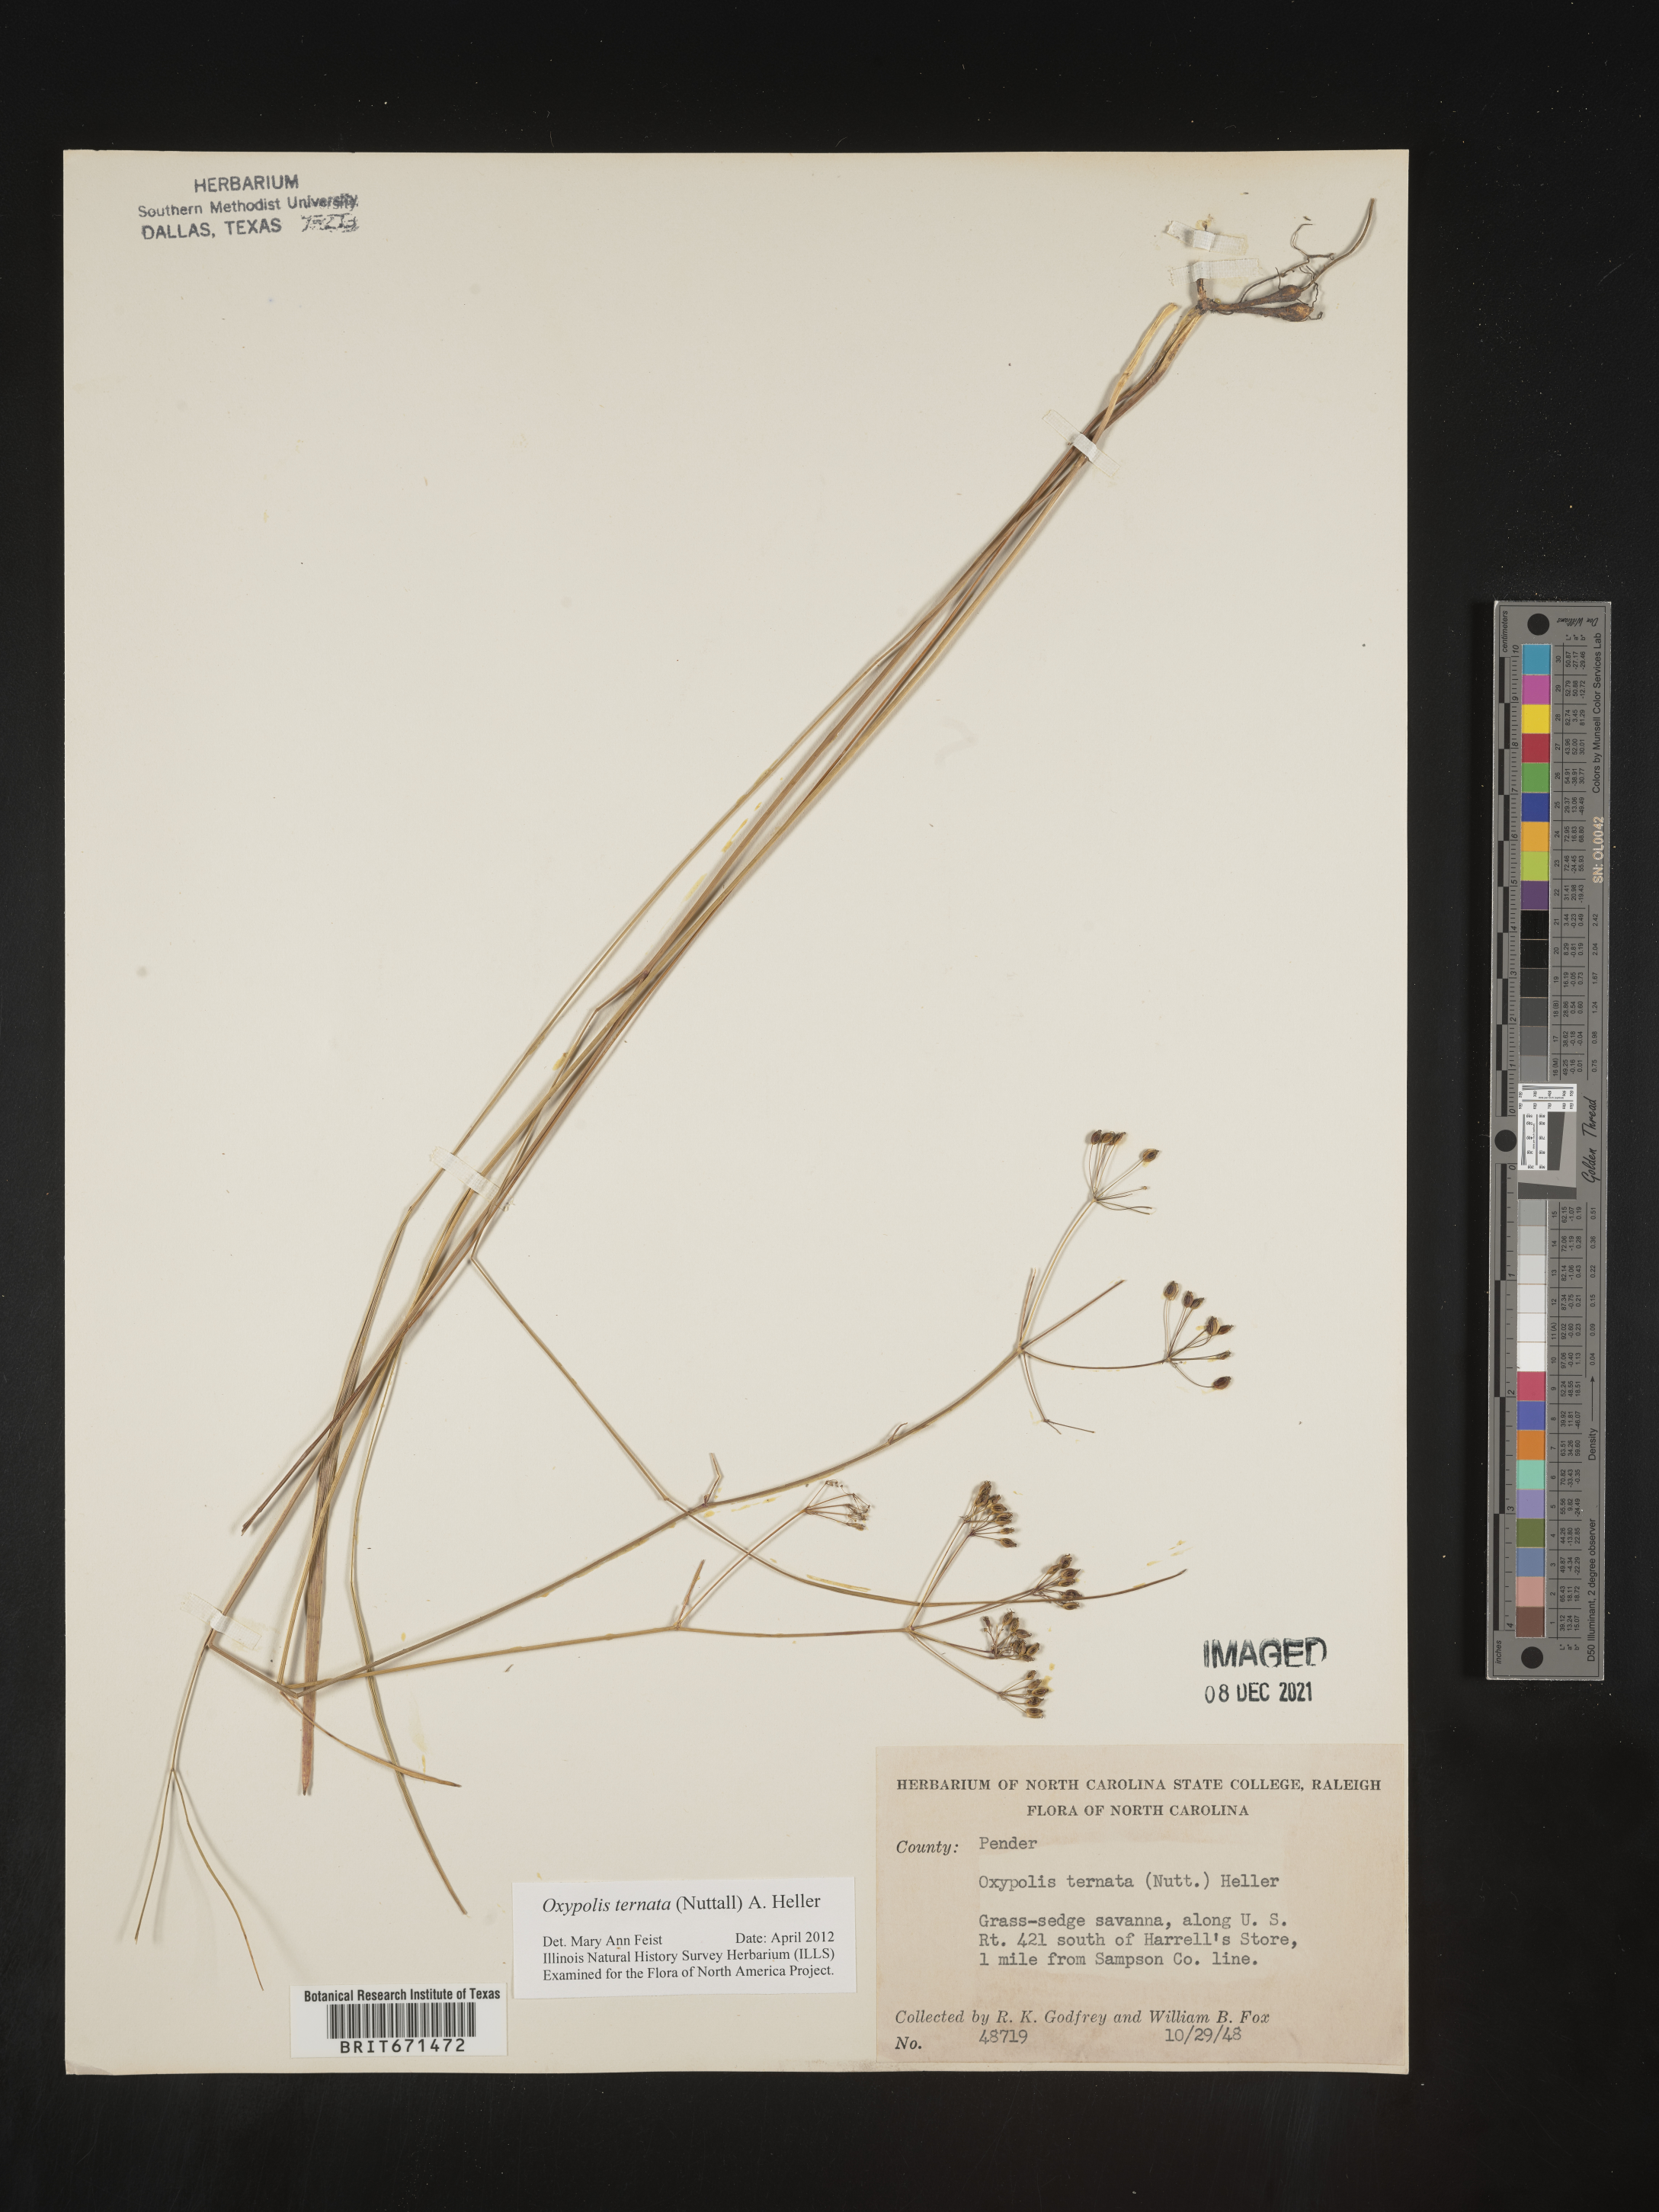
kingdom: Plantae
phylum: Tracheophyta
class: Magnoliopsida
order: Apiales
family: Apiaceae
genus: Oxypolis
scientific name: Oxypolis ternata
